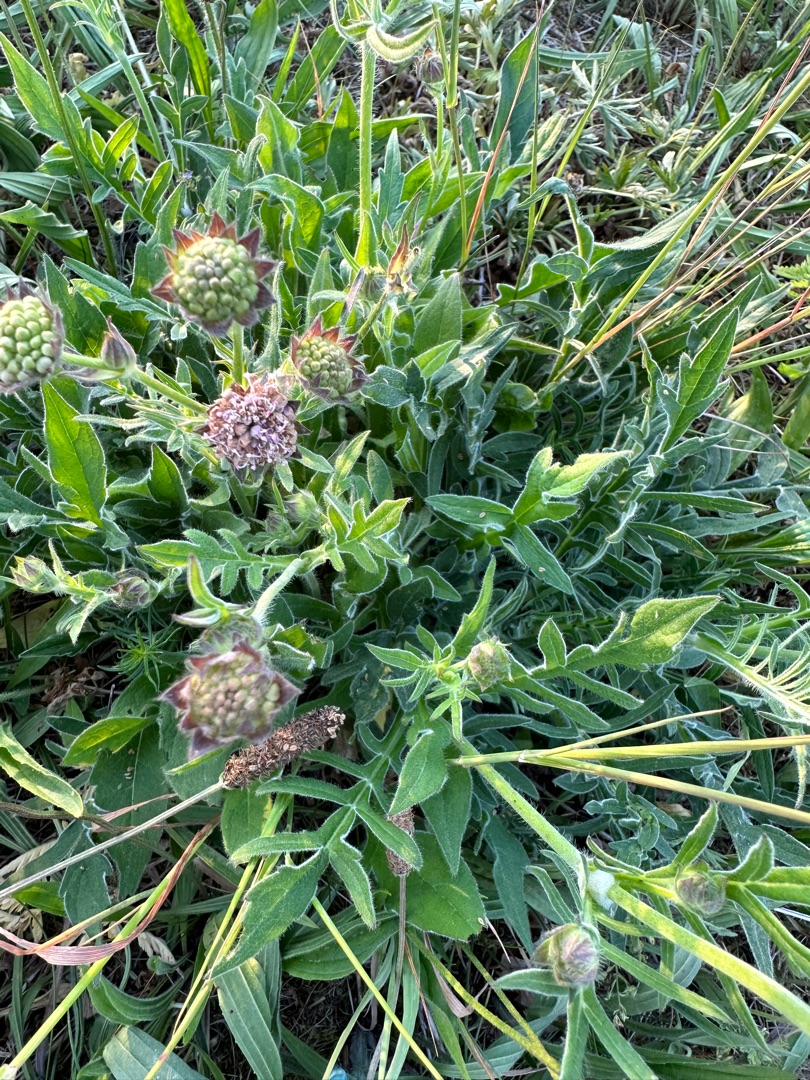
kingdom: Plantae
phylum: Tracheophyta
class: Magnoliopsida
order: Dipsacales
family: Caprifoliaceae
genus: Knautia
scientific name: Knautia arvensis
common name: Blåhat
